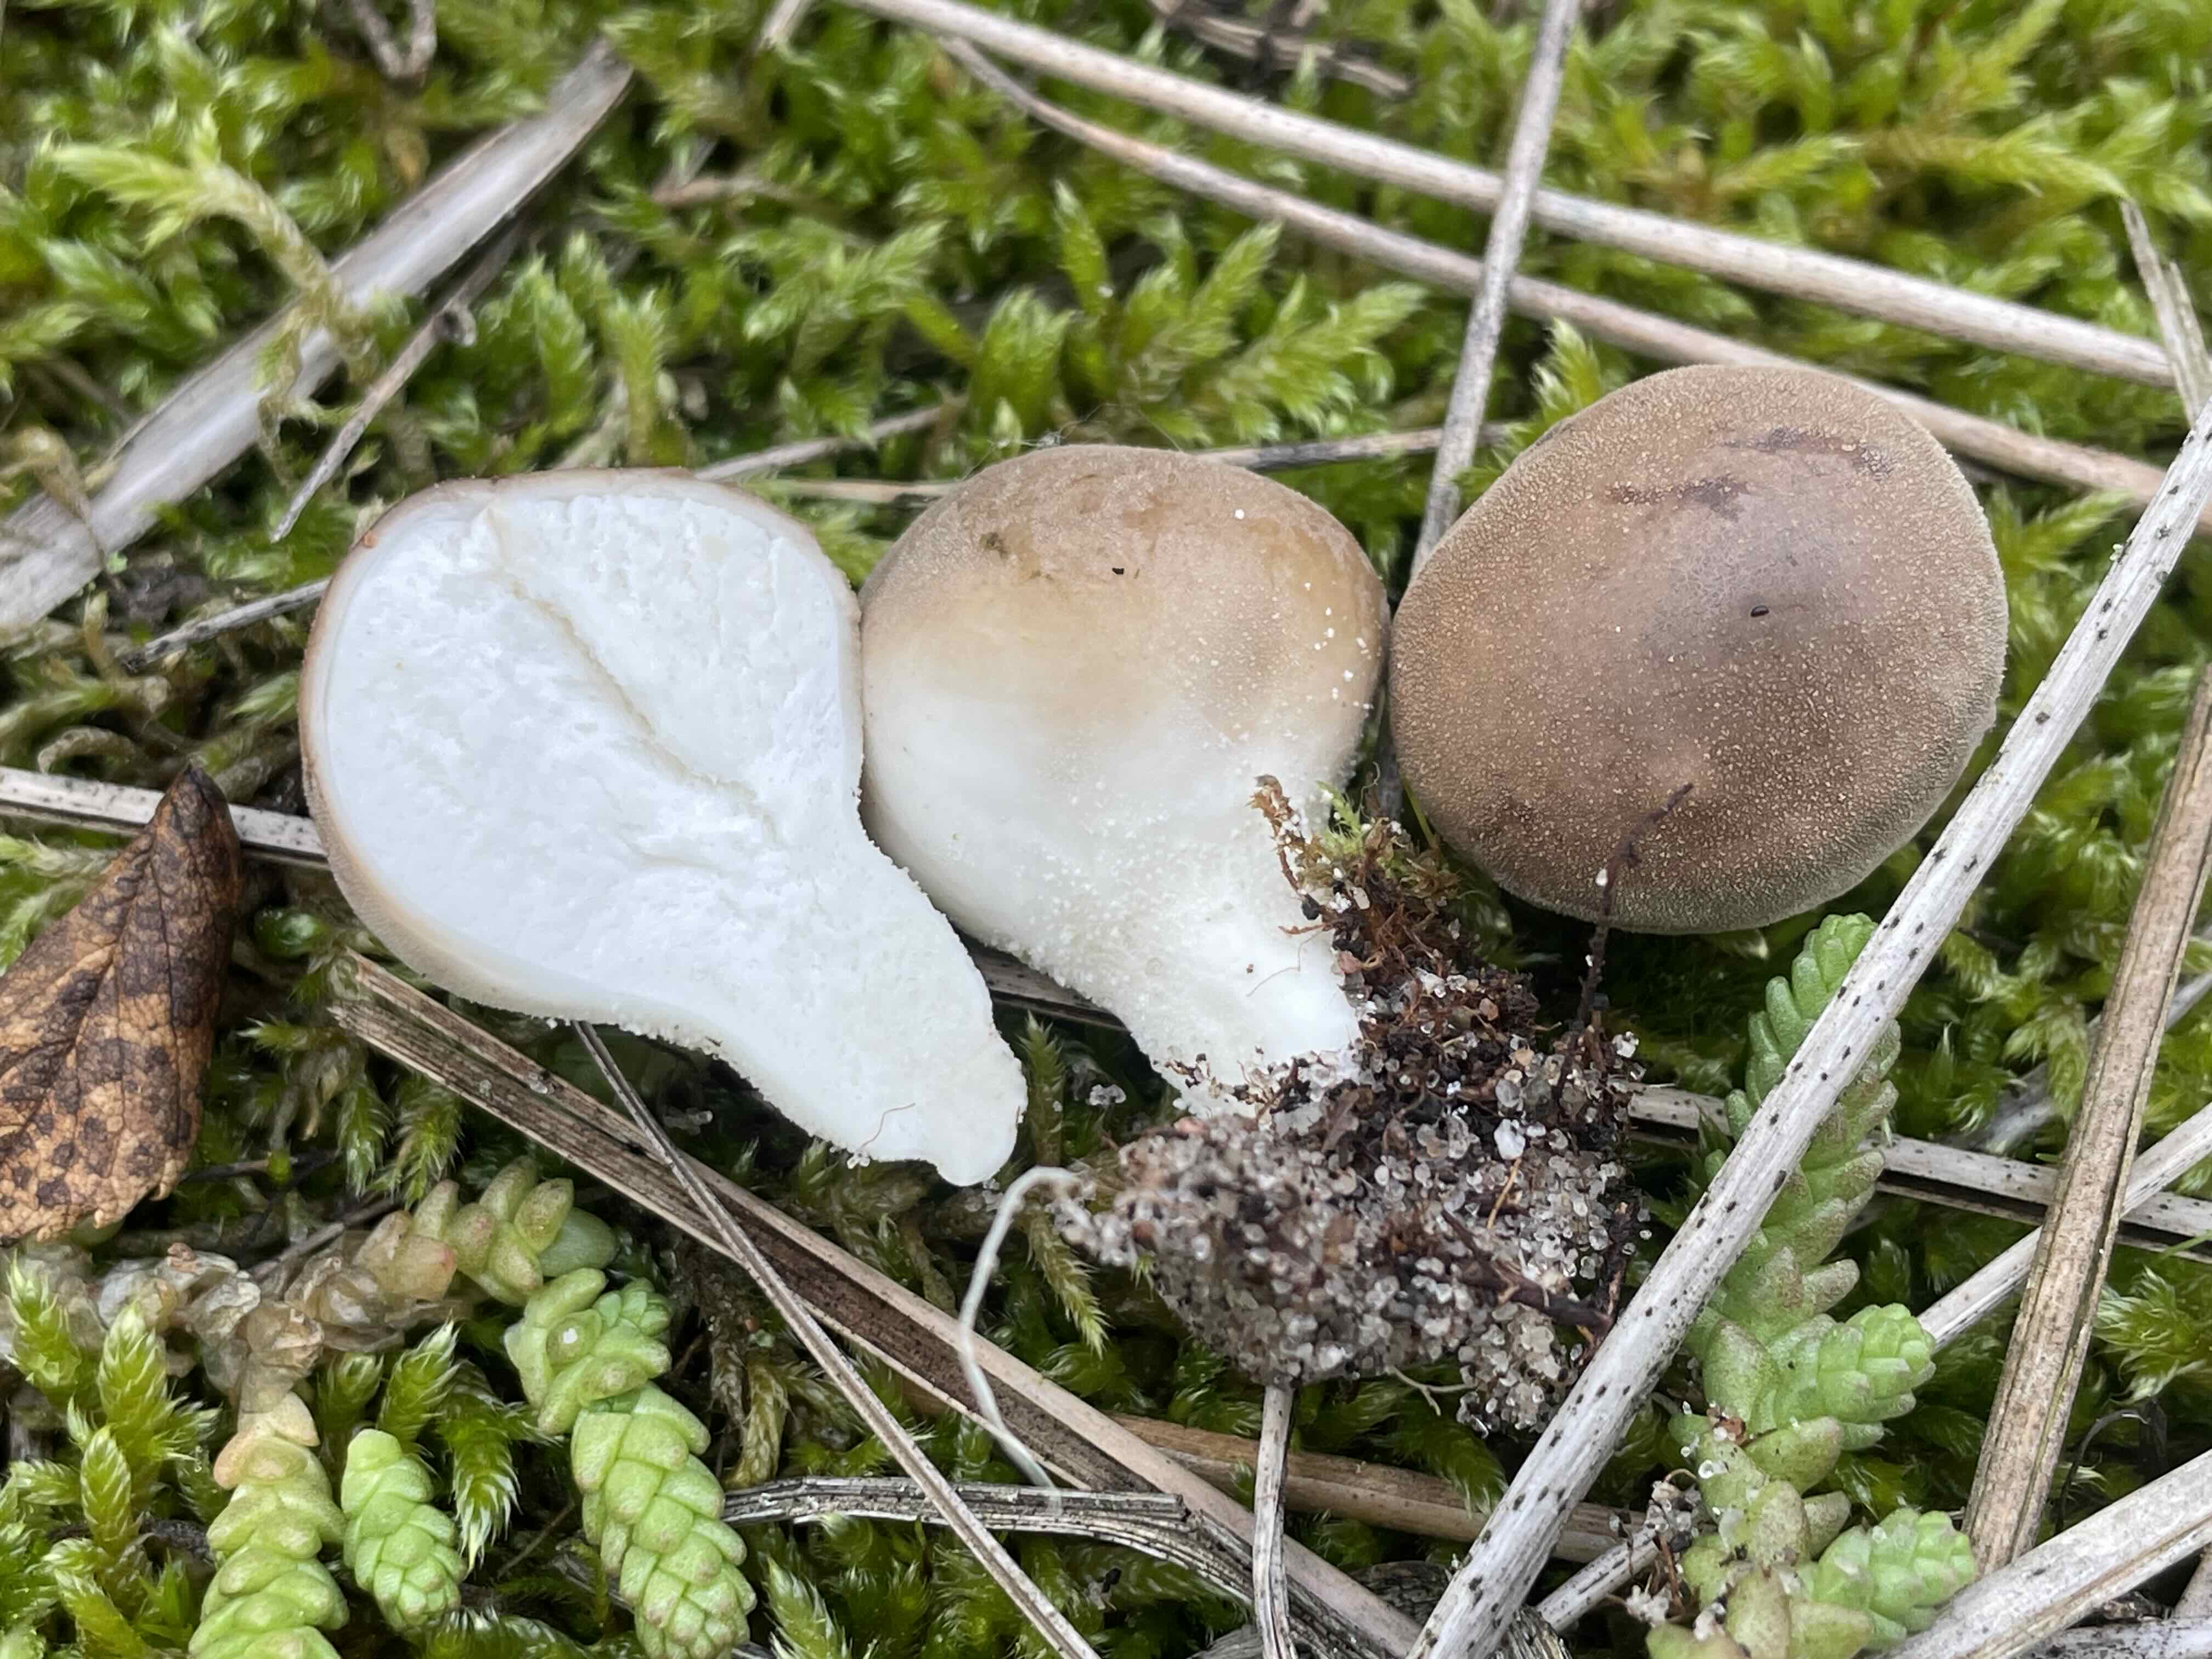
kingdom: Fungi
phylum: Basidiomycota
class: Agaricomycetes
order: Agaricales
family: Lycoperdaceae
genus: Lycoperdon
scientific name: Lycoperdon lividum
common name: mark-støvbold
